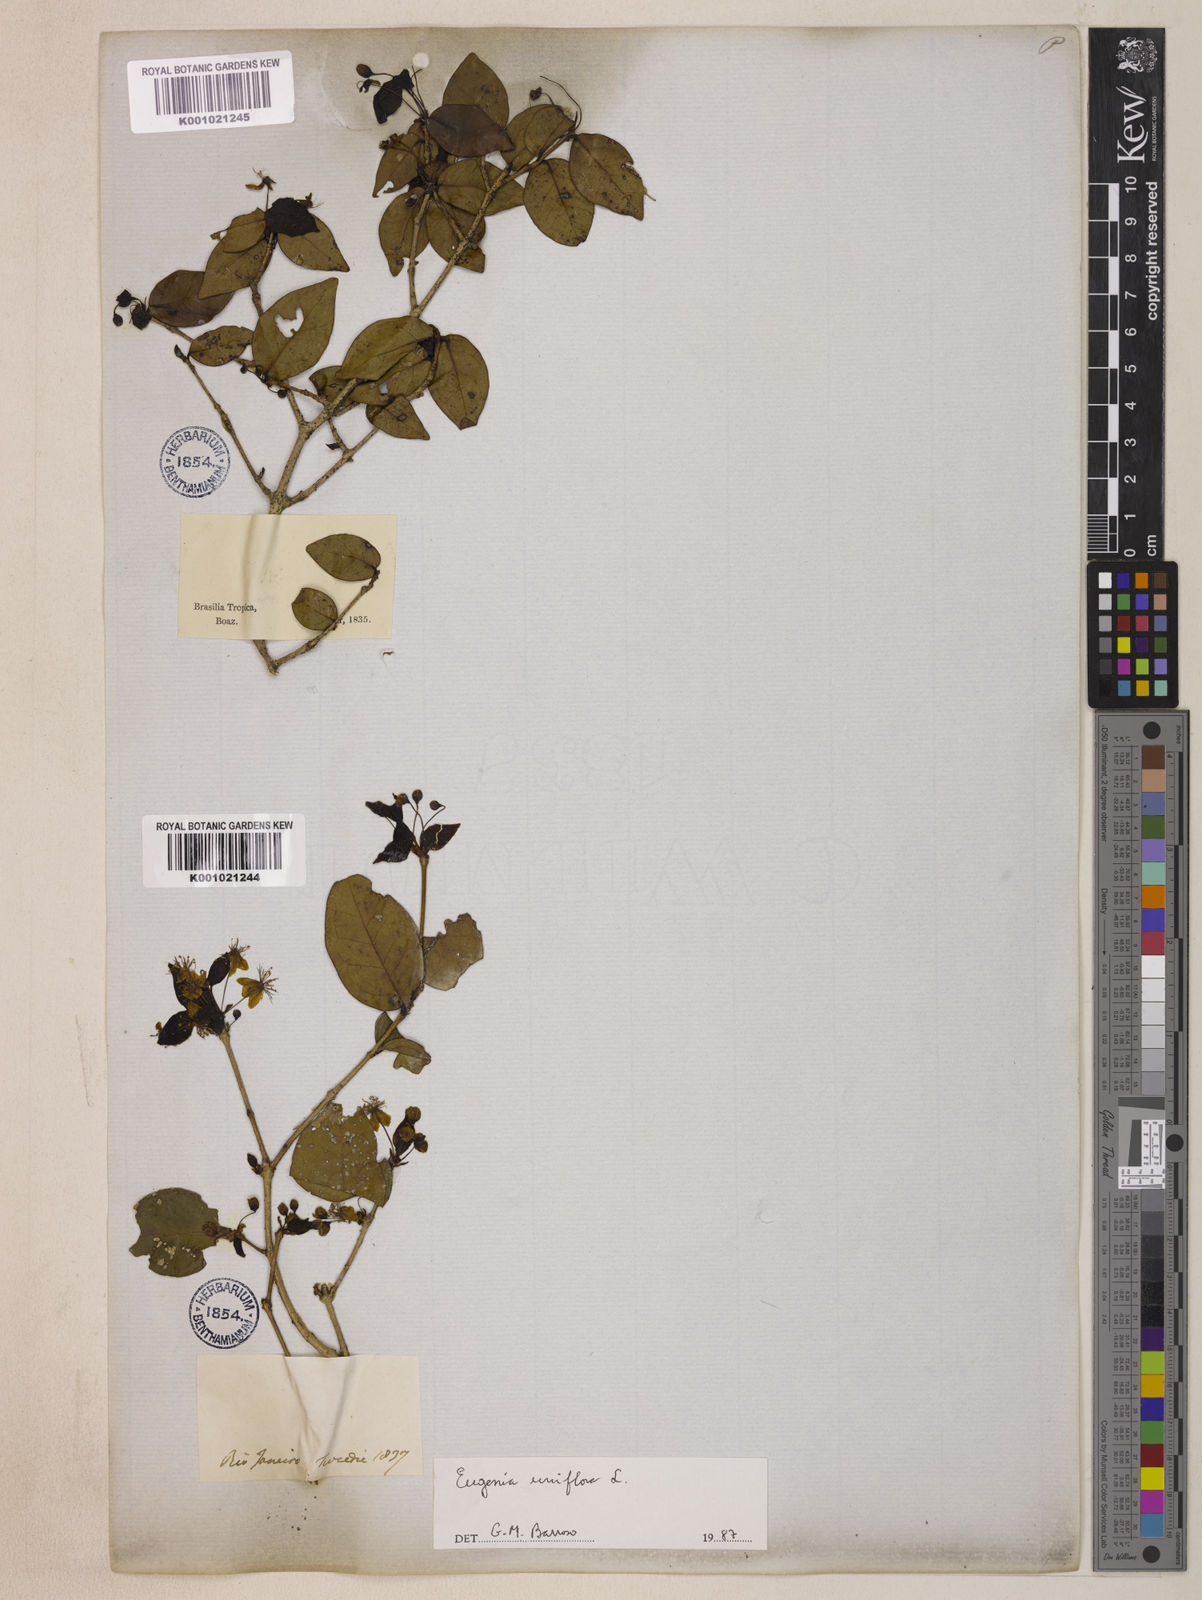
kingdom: Plantae
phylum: Tracheophyta
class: Magnoliopsida
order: Myrtales
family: Myrtaceae
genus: Eugenia
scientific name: Eugenia uniflora
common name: Surinam cherry
